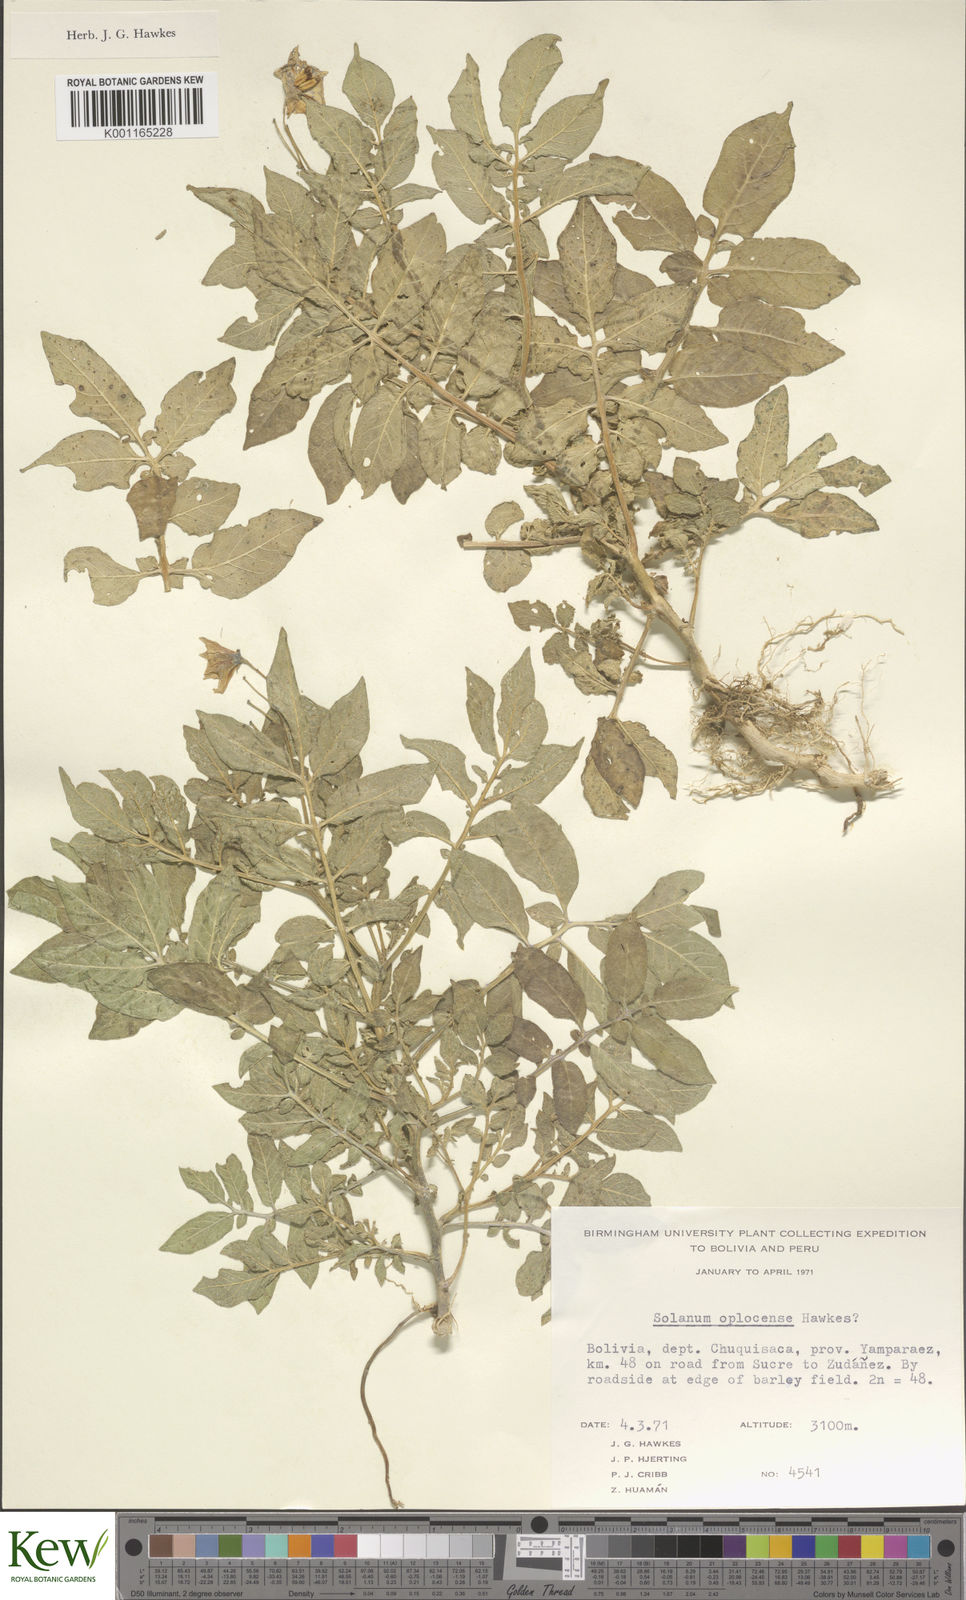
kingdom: Plantae
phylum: Tracheophyta
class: Magnoliopsida
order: Solanales
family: Solanaceae
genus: Solanum
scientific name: Solanum brevicaule
